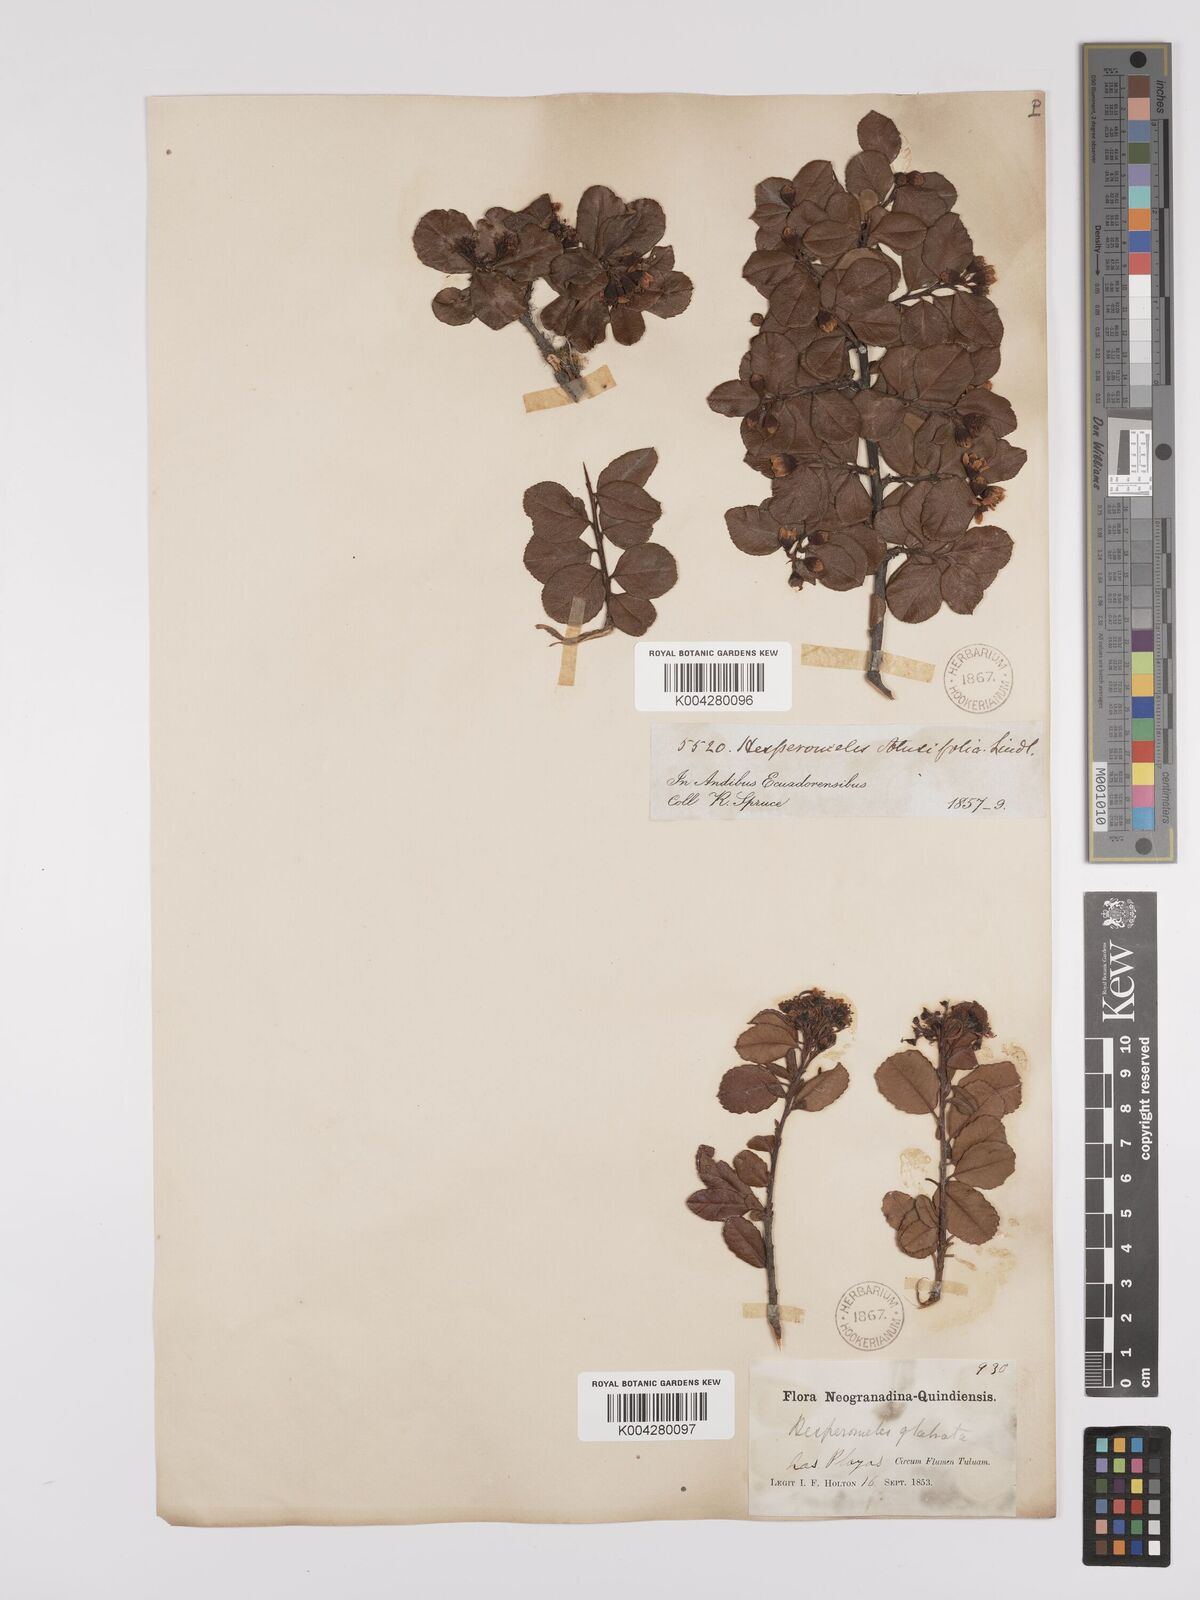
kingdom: Plantae
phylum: Tracheophyta
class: Magnoliopsida
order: Rosales
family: Rosaceae
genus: Hesperomeles
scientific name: Hesperomeles obtusifolia
